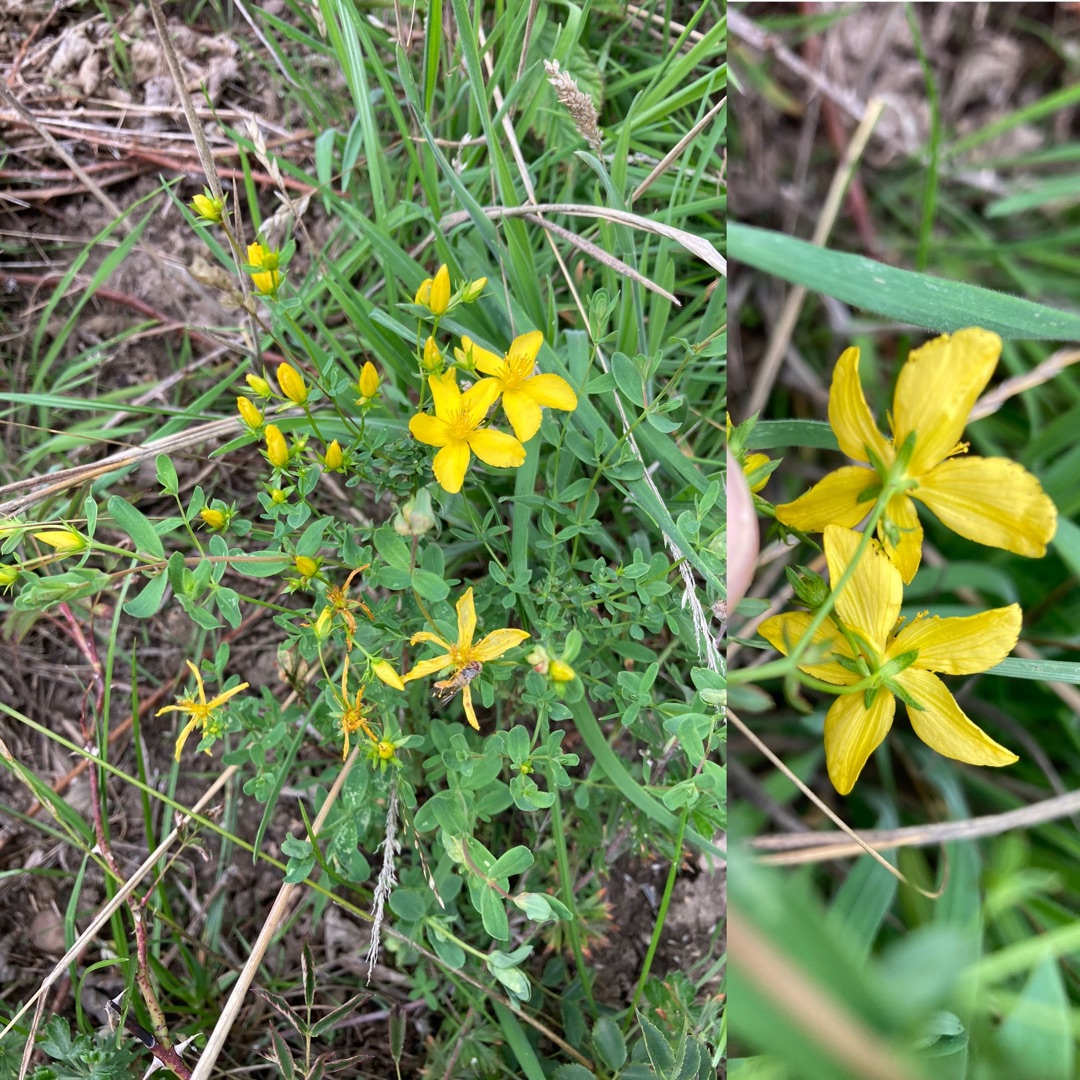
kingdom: Plantae
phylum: Tracheophyta
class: Magnoliopsida
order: Malpighiales
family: Hypericaceae
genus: Hypericum
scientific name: Hypericum perforatum
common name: Prikbladet perikon
